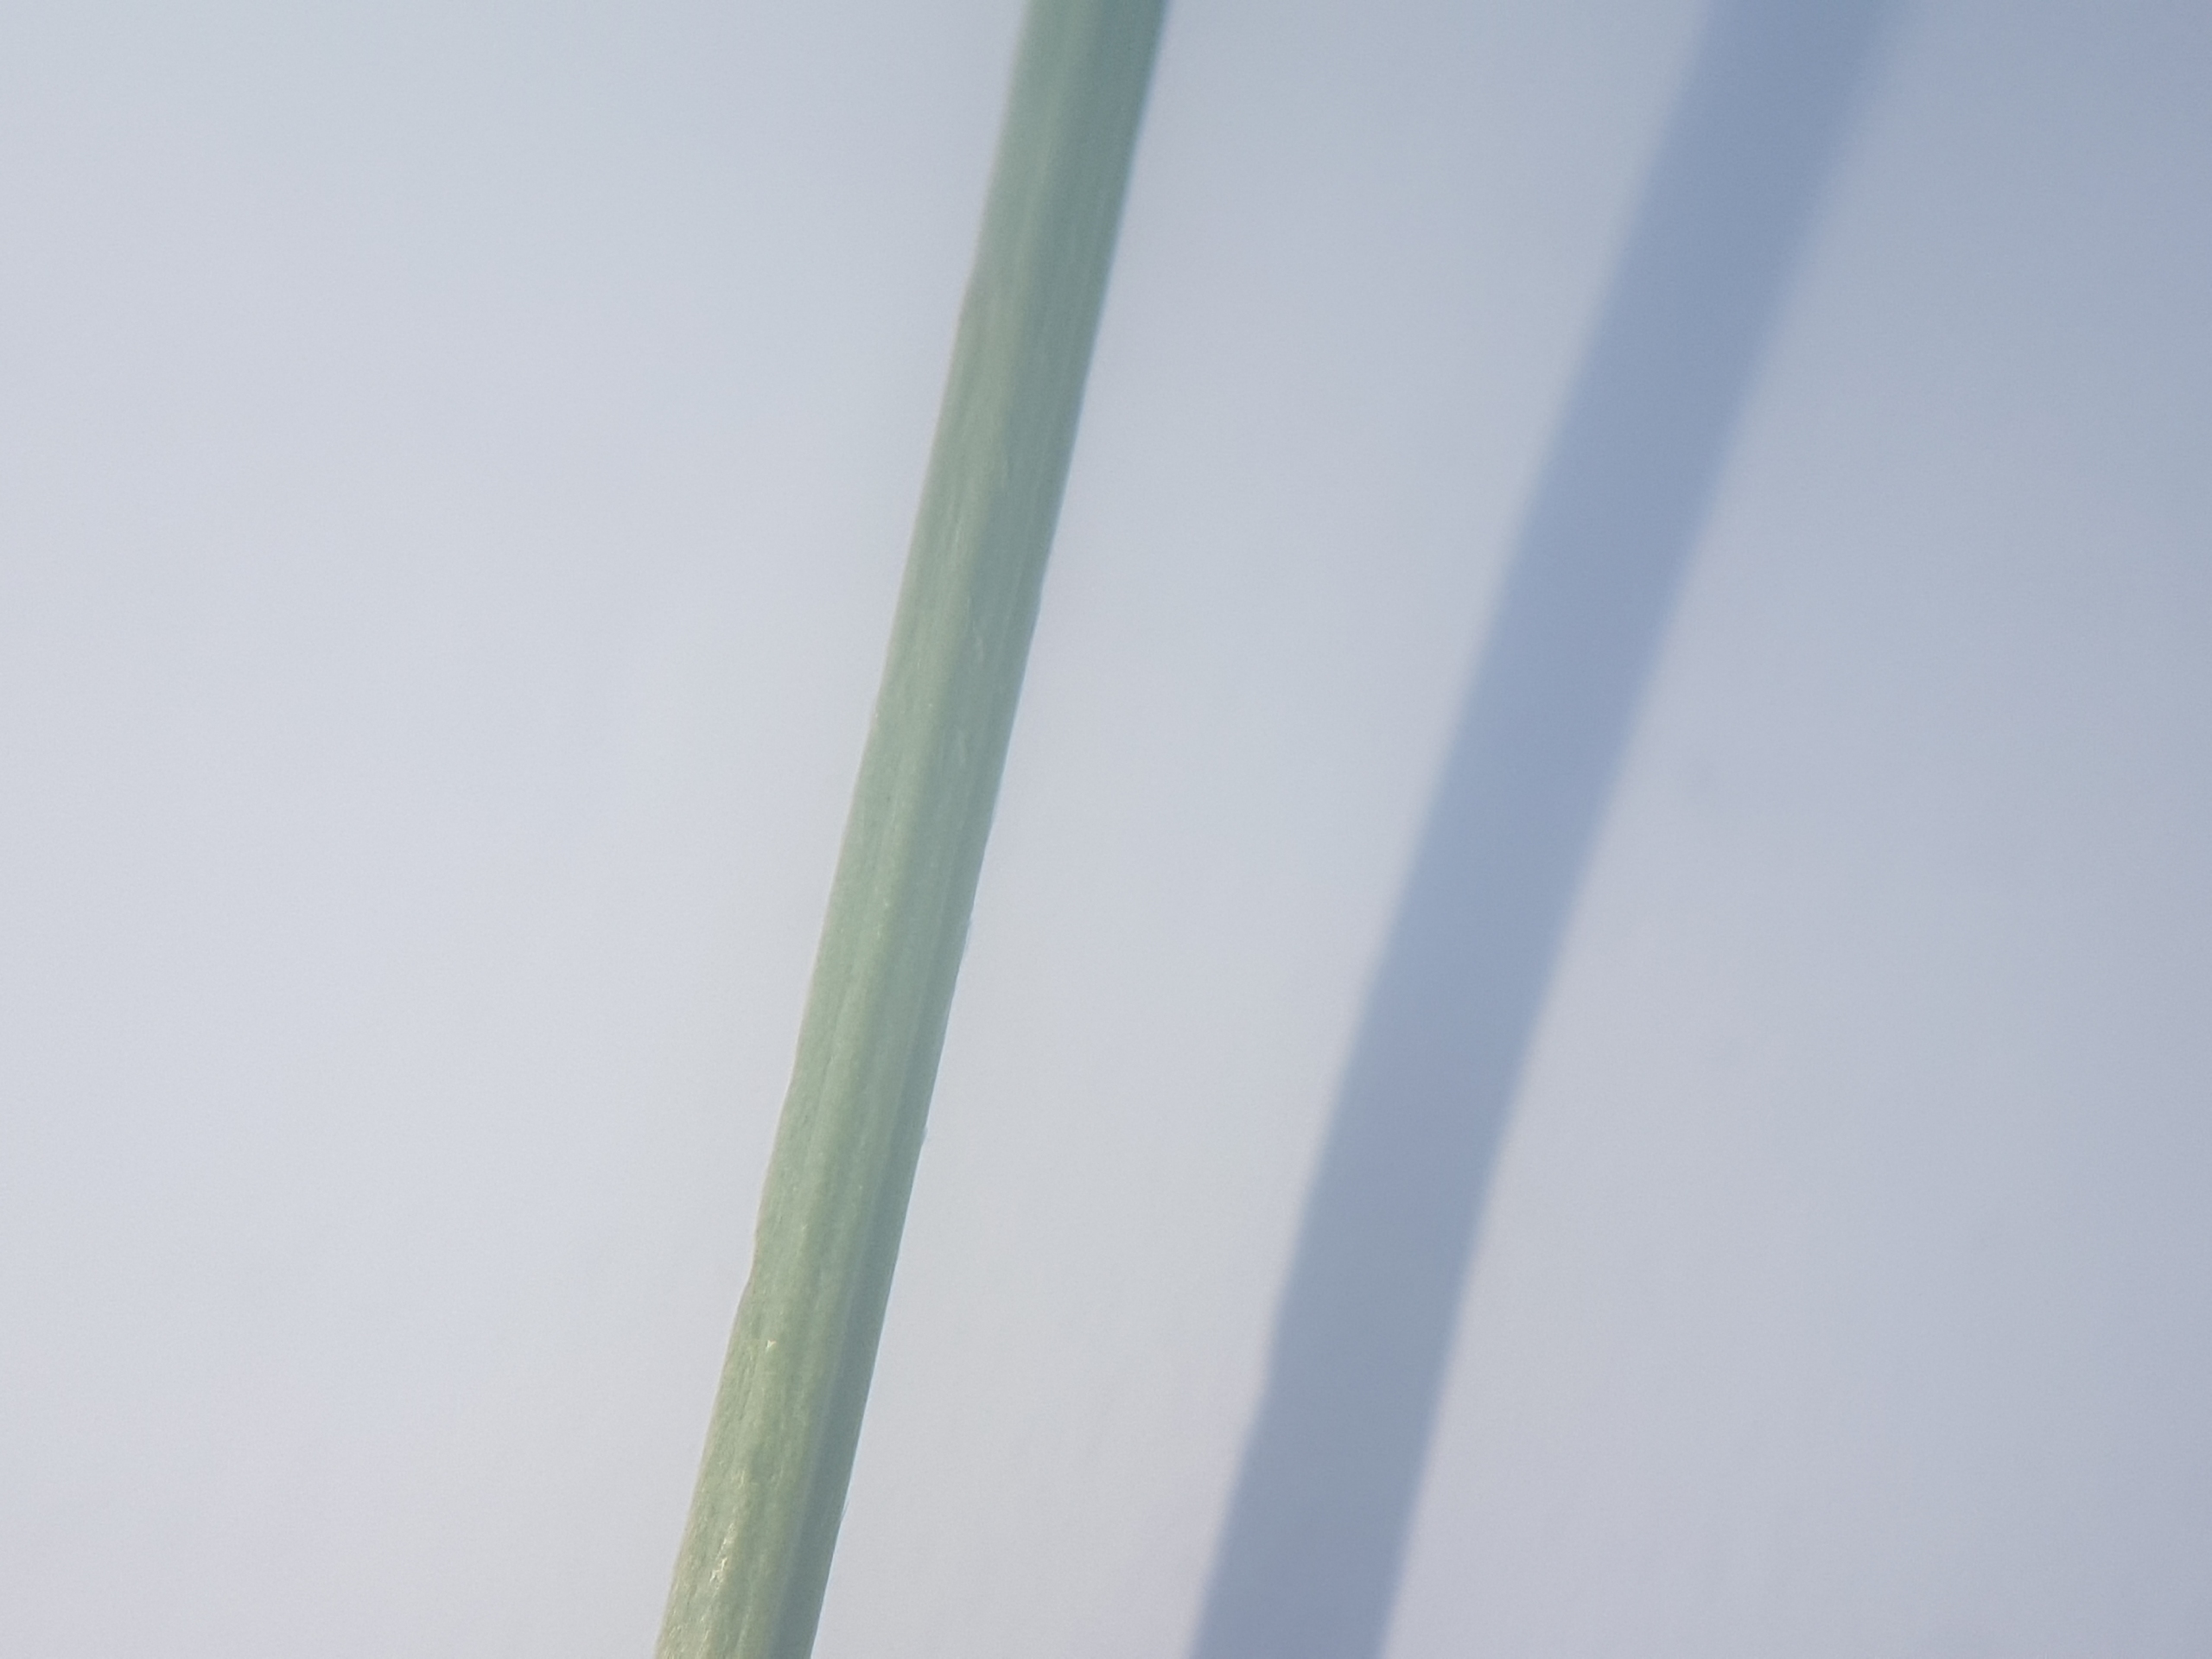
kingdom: Plantae
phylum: Tracheophyta
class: Magnoliopsida
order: Lamiales
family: Plantaginaceae
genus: Plantago
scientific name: Plantago lanceolata
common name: Lancet-vejbred
